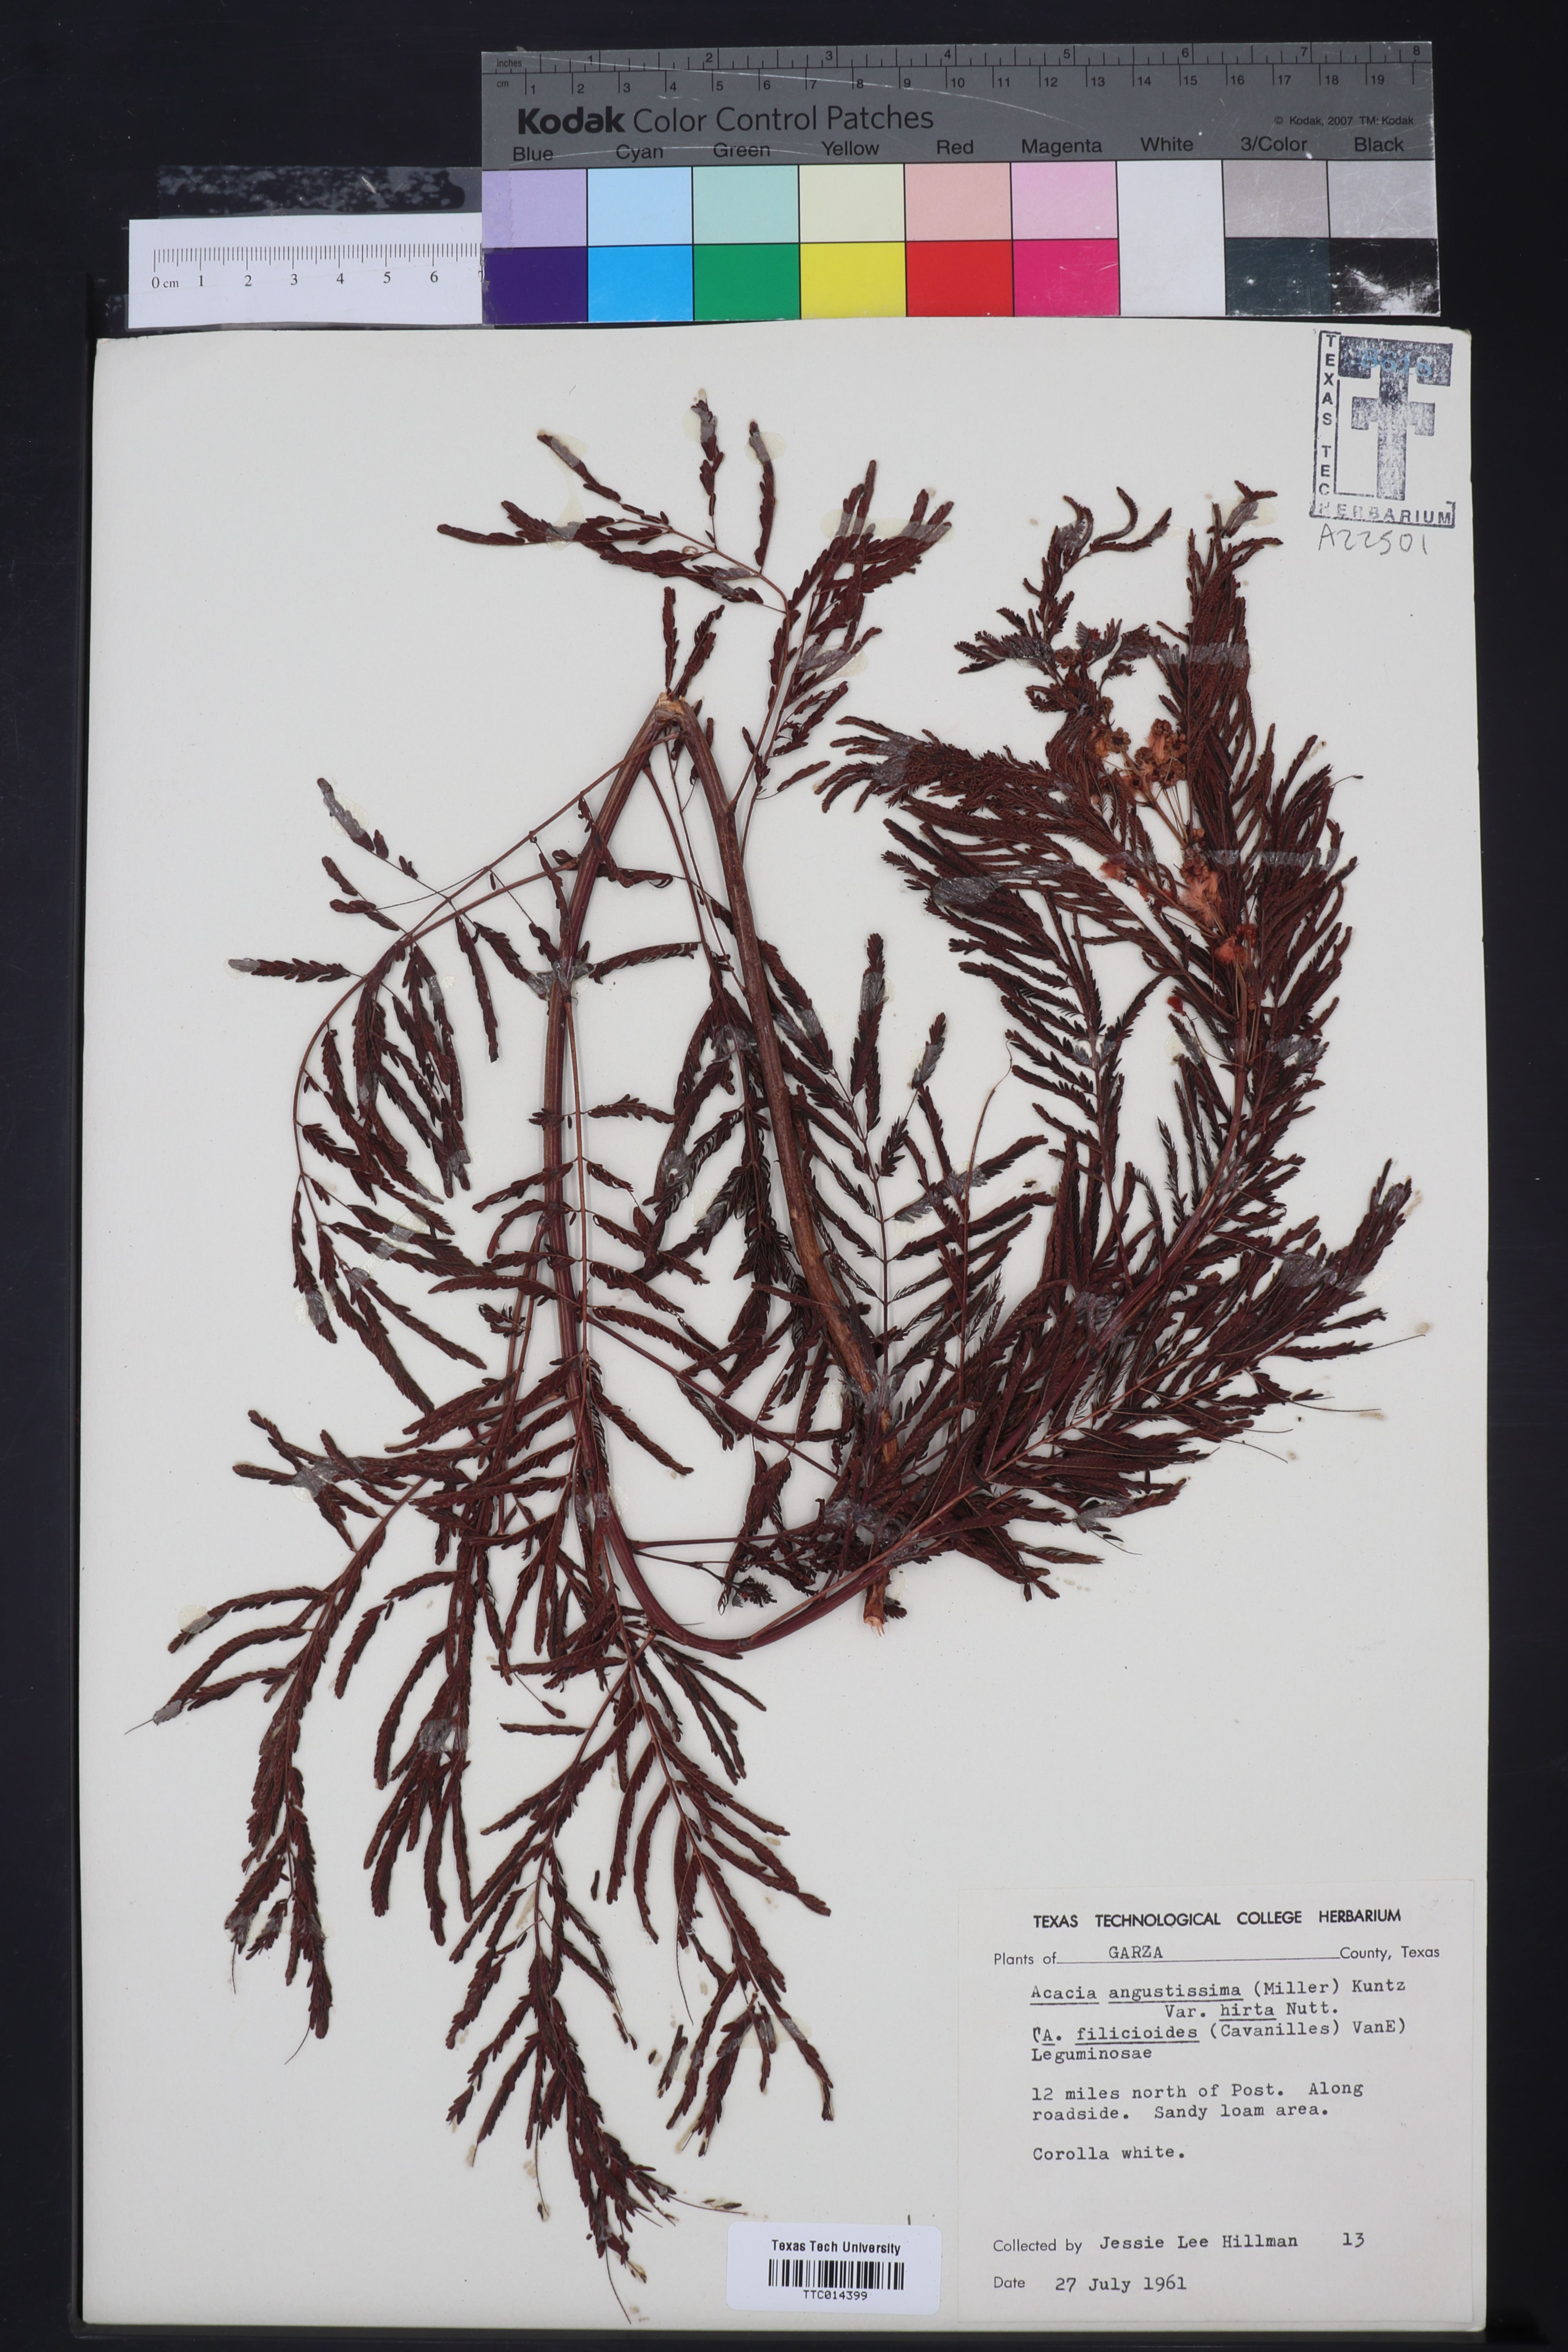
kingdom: Plantae
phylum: Tracheophyta
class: Magnoliopsida
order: Fabales
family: Fabaceae
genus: Acaciella
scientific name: Acaciella angustissima
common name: Prairie acacia
